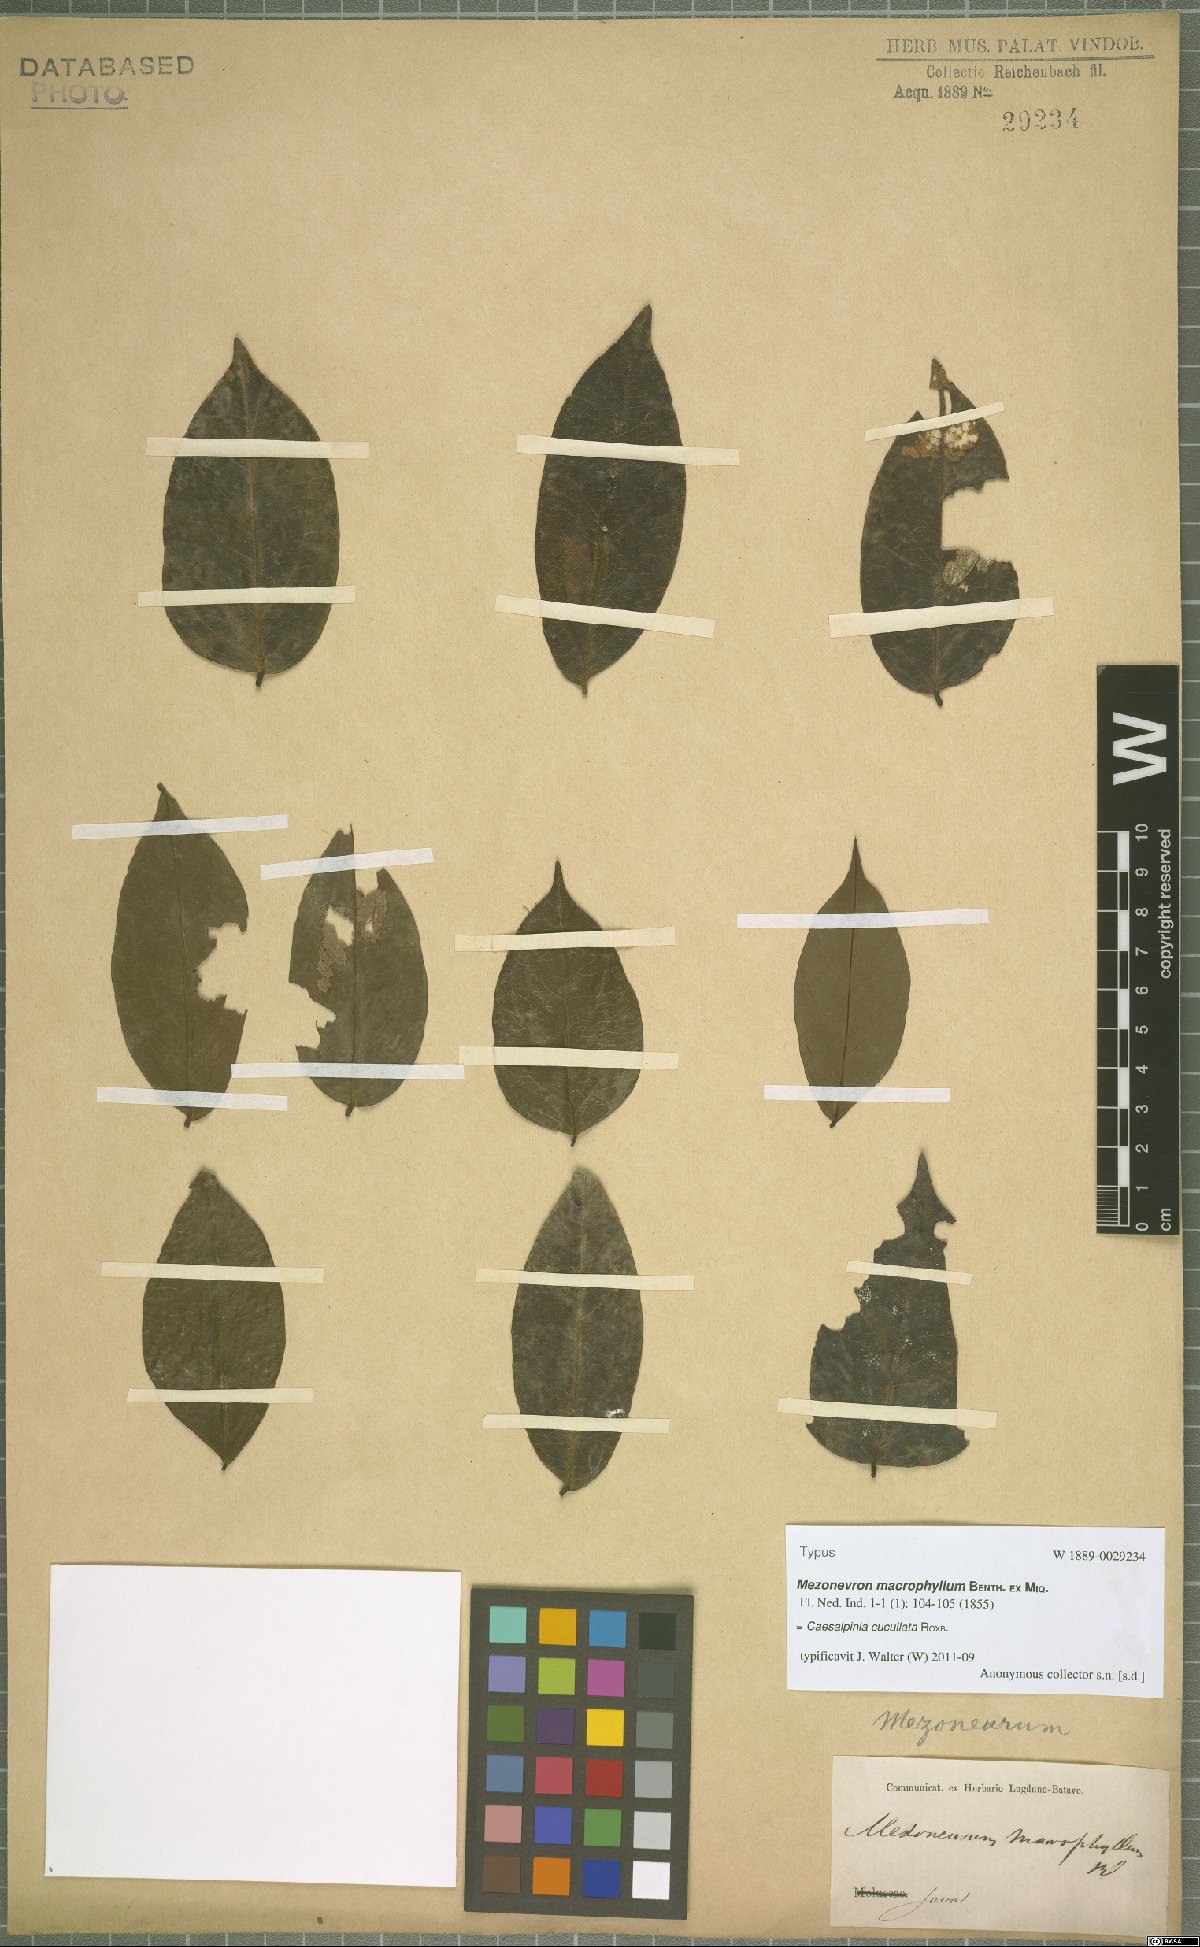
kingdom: Plantae
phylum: Tracheophyta
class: Magnoliopsida
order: Fabales
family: Fabaceae
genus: Mezoneuron
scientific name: Mezoneuron cucullatum
